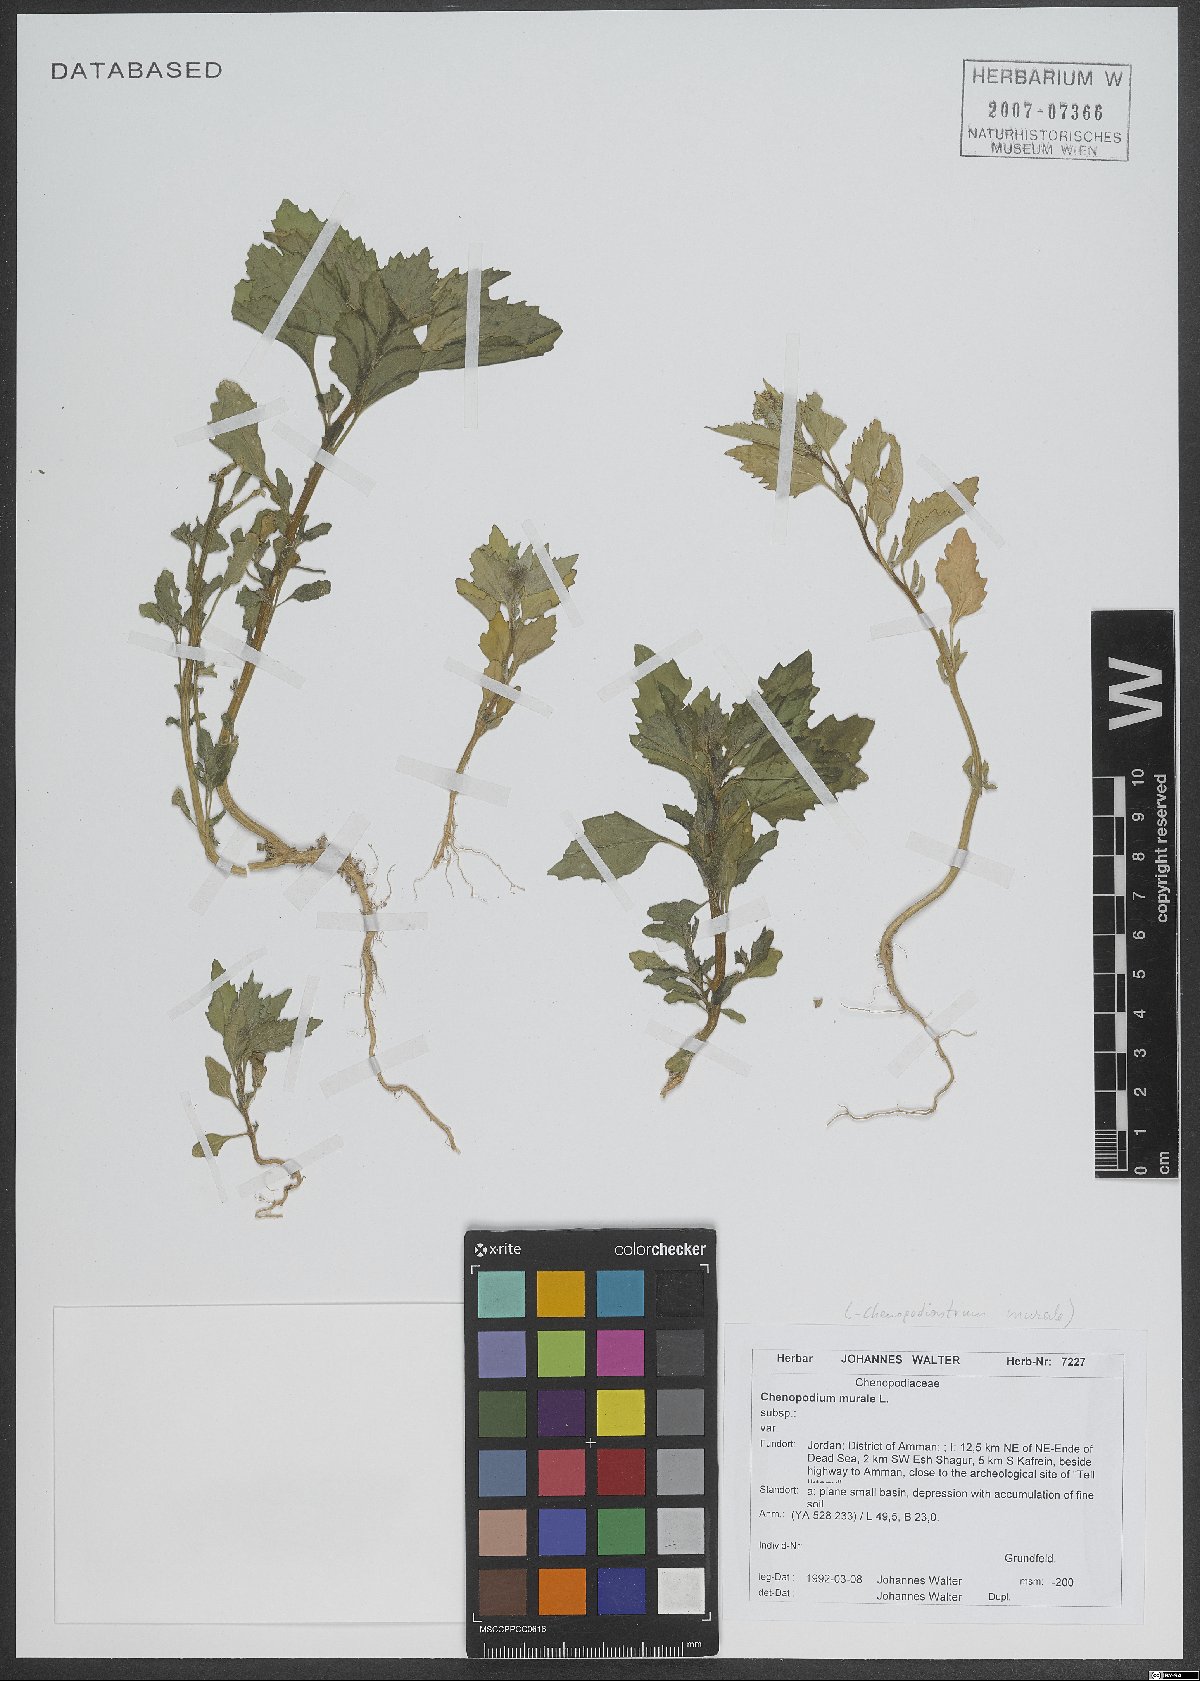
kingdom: Plantae
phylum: Tracheophyta
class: Magnoliopsida
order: Caryophyllales
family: Amaranthaceae
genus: Chenopodiastrum
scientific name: Chenopodiastrum murale
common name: Sowbane
